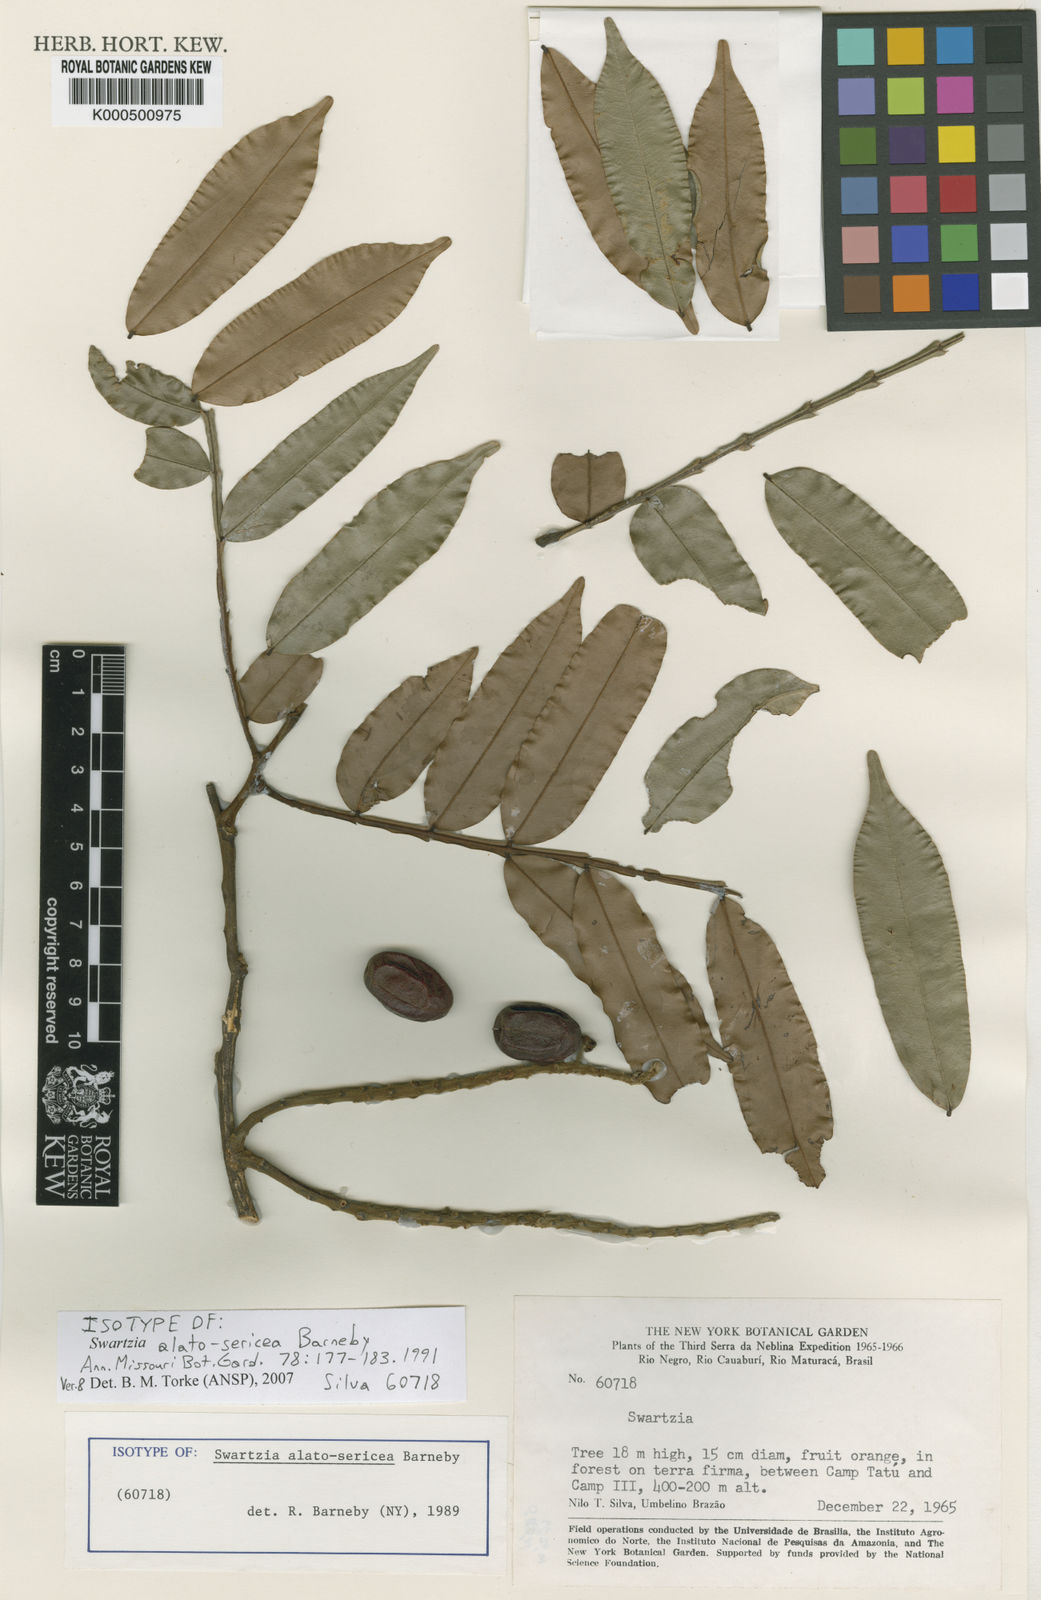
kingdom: Plantae
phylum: Tracheophyta
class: Magnoliopsida
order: Fabales
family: Fabaceae
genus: Swartzia
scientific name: Swartzia alatosericea
